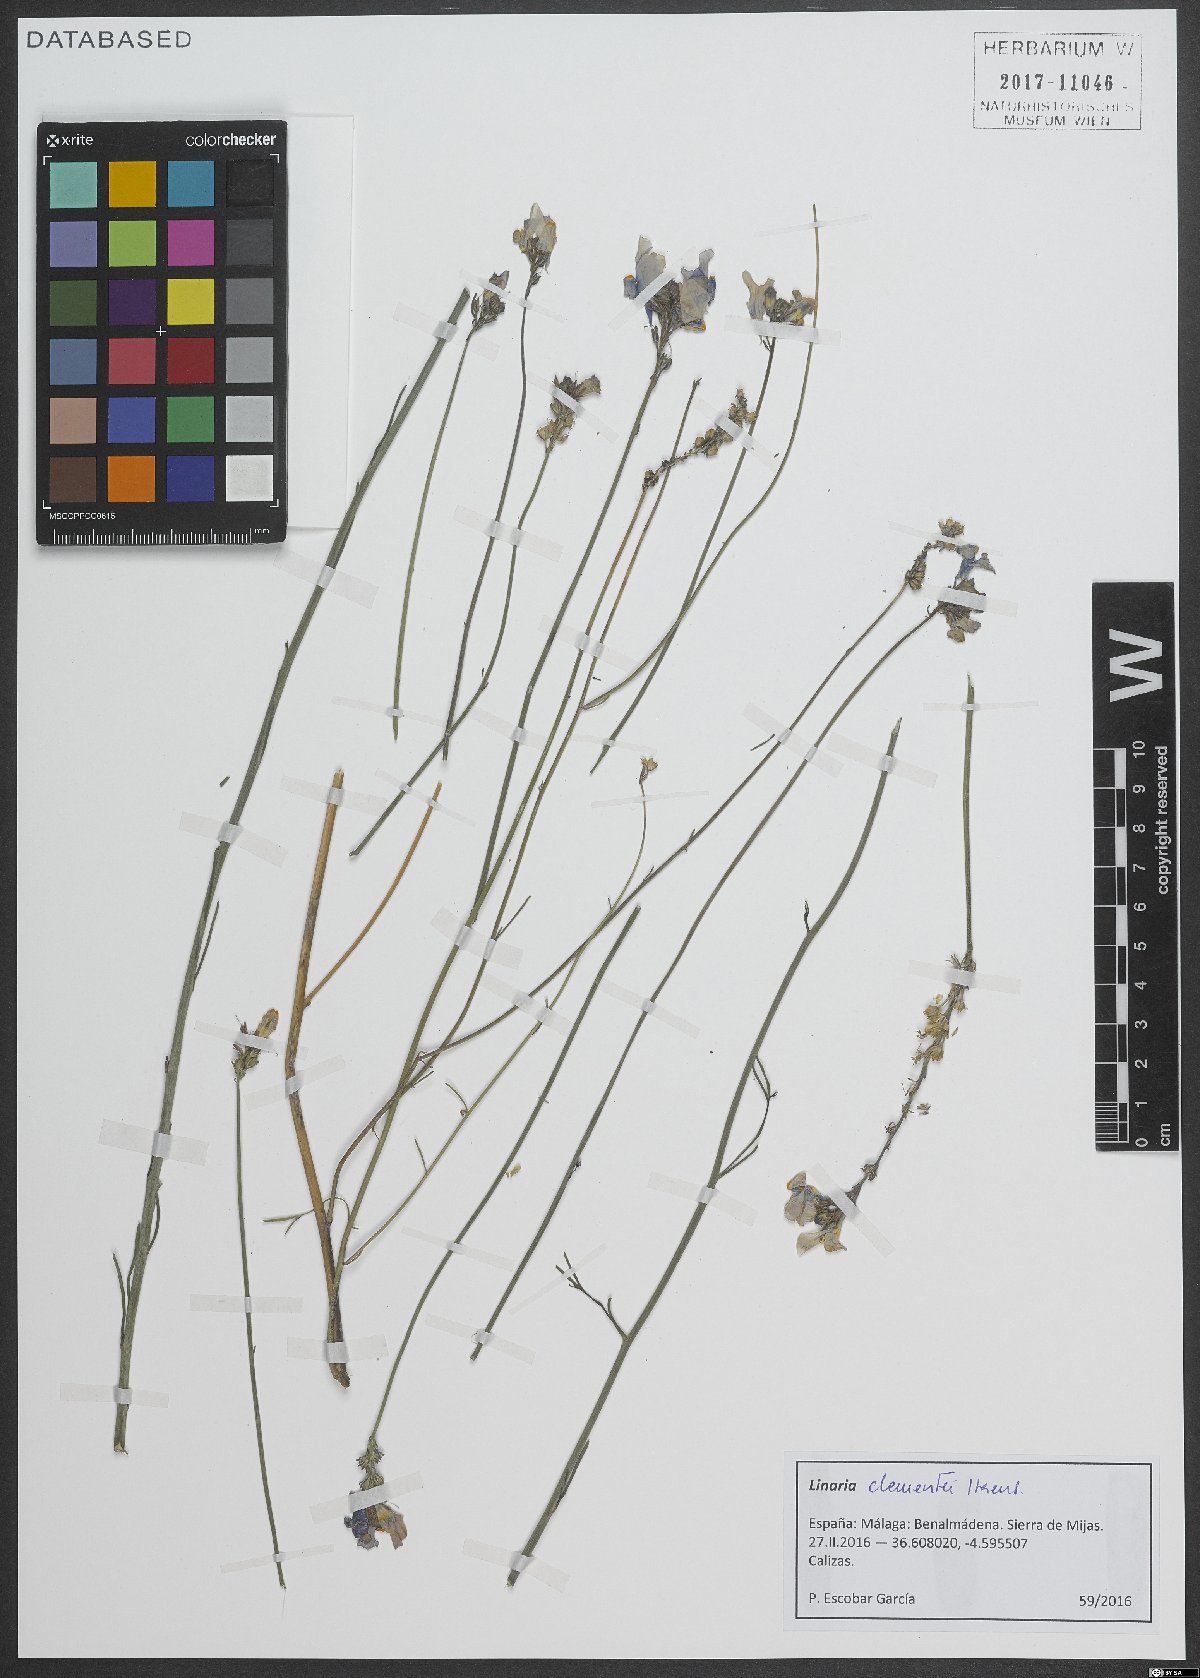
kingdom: Plantae
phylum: Tracheophyta
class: Magnoliopsida
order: Lamiales
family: Plantaginaceae
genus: Linaria
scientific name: Linaria clementei
